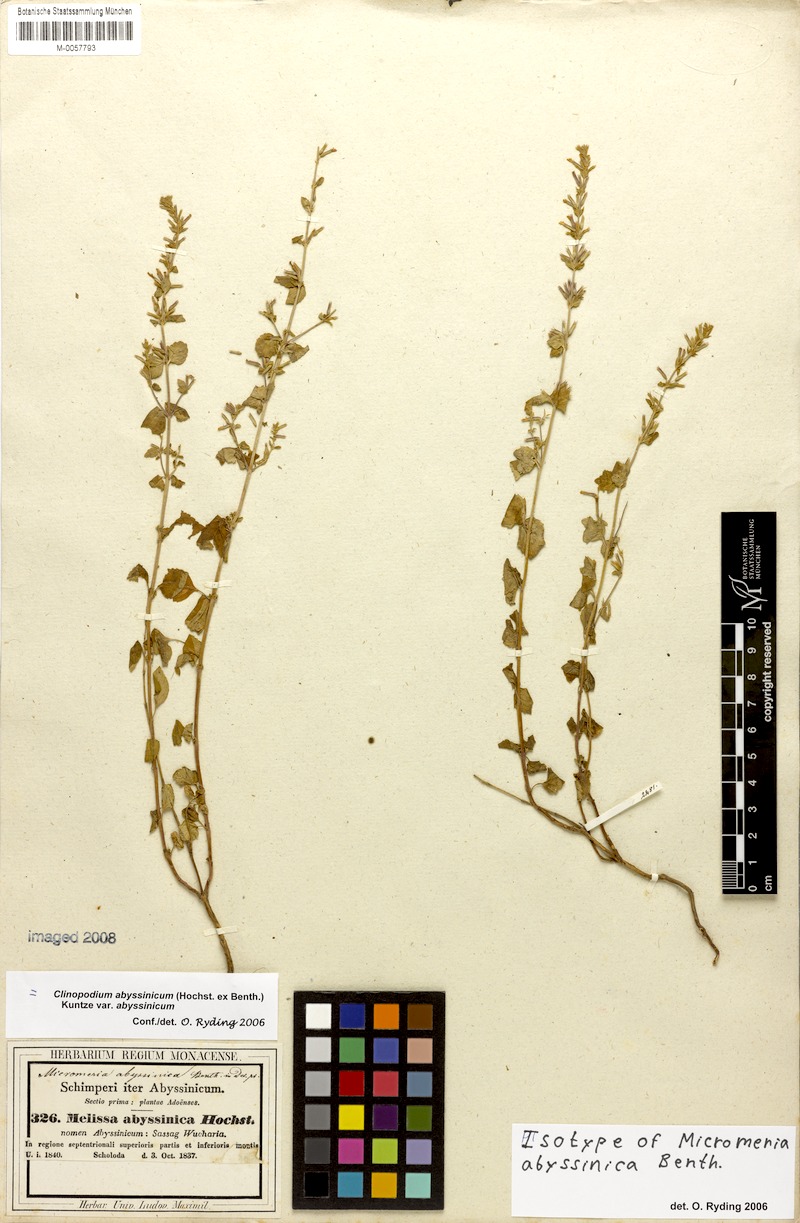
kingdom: Plantae
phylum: Tracheophyta
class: Magnoliopsida
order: Lamiales
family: Lamiaceae
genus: Clinopodium
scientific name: Clinopodium abyssinicum
